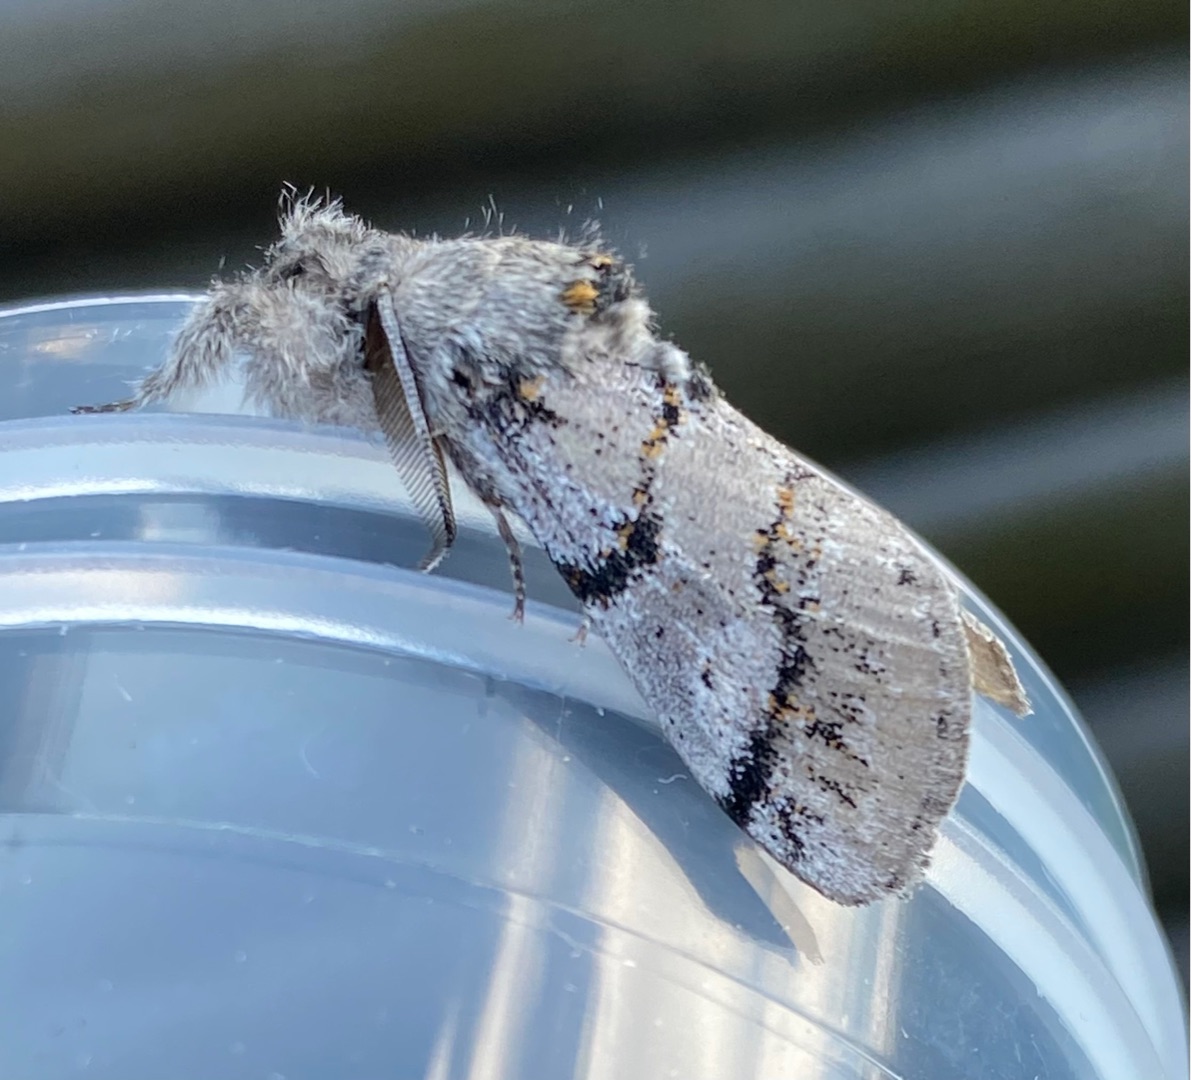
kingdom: Animalia
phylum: Arthropoda
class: Insecta
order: Lepidoptera
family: Erebidae
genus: Calliteara
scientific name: Calliteara Dicallomera fascelina
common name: Hedenonne
